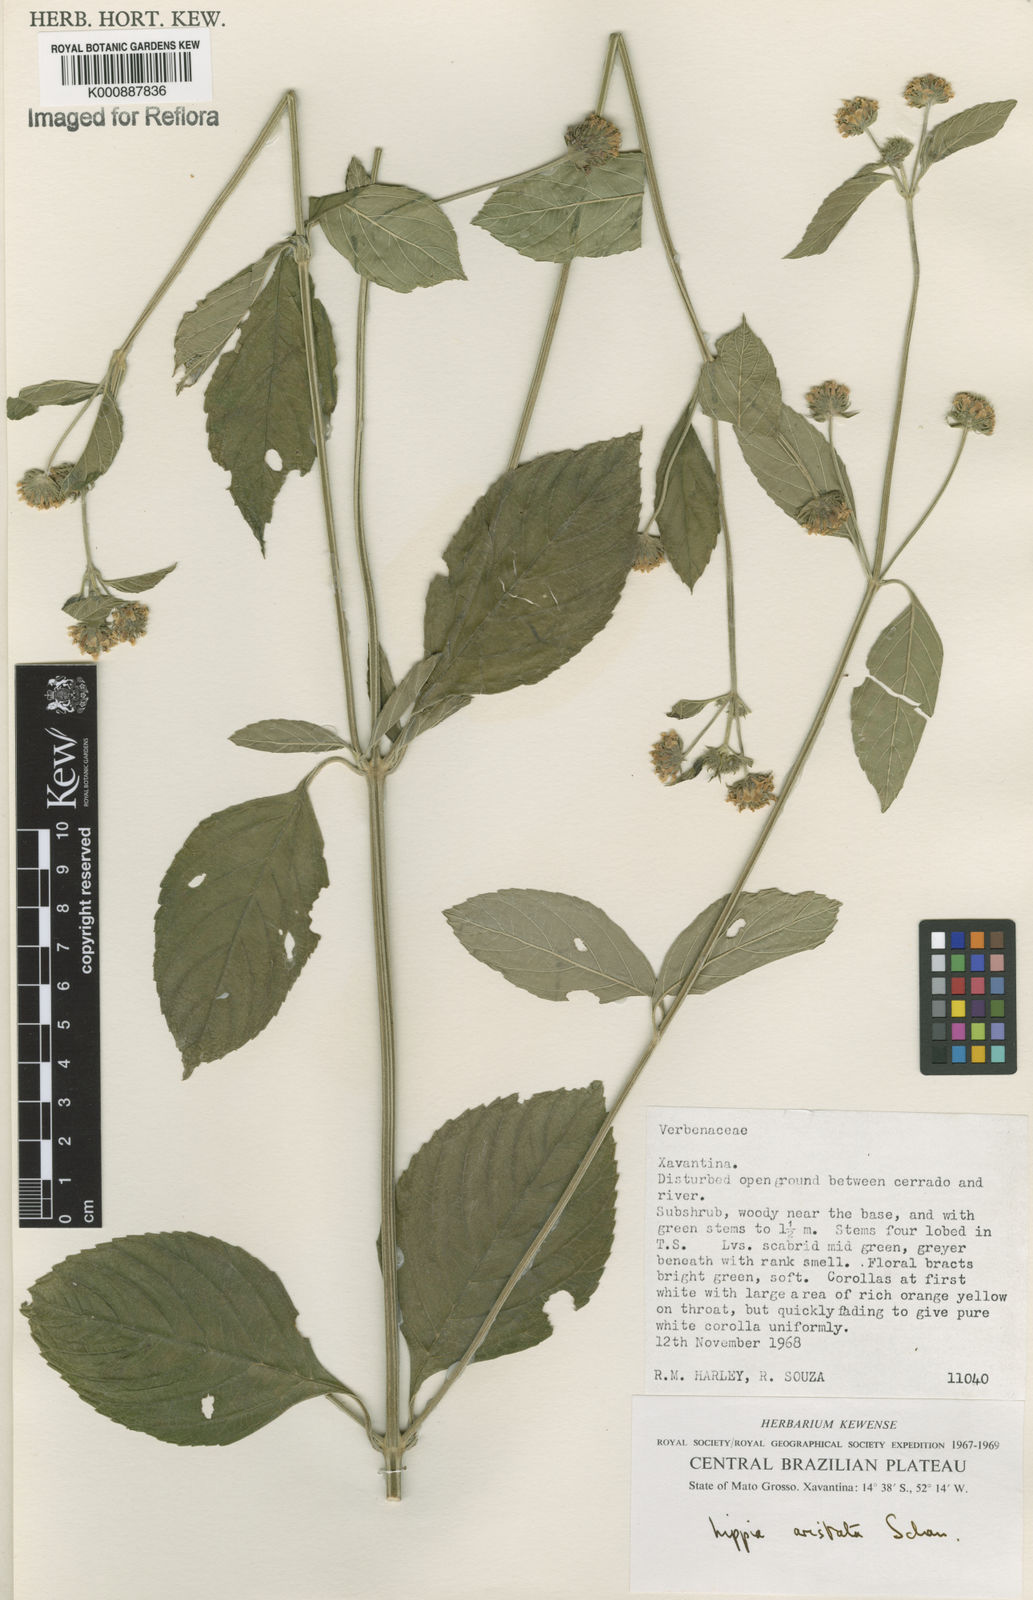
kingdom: Plantae
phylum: Tracheophyta
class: Magnoliopsida
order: Lamiales
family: Verbenaceae
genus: Lippia
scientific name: Lippia aristata
